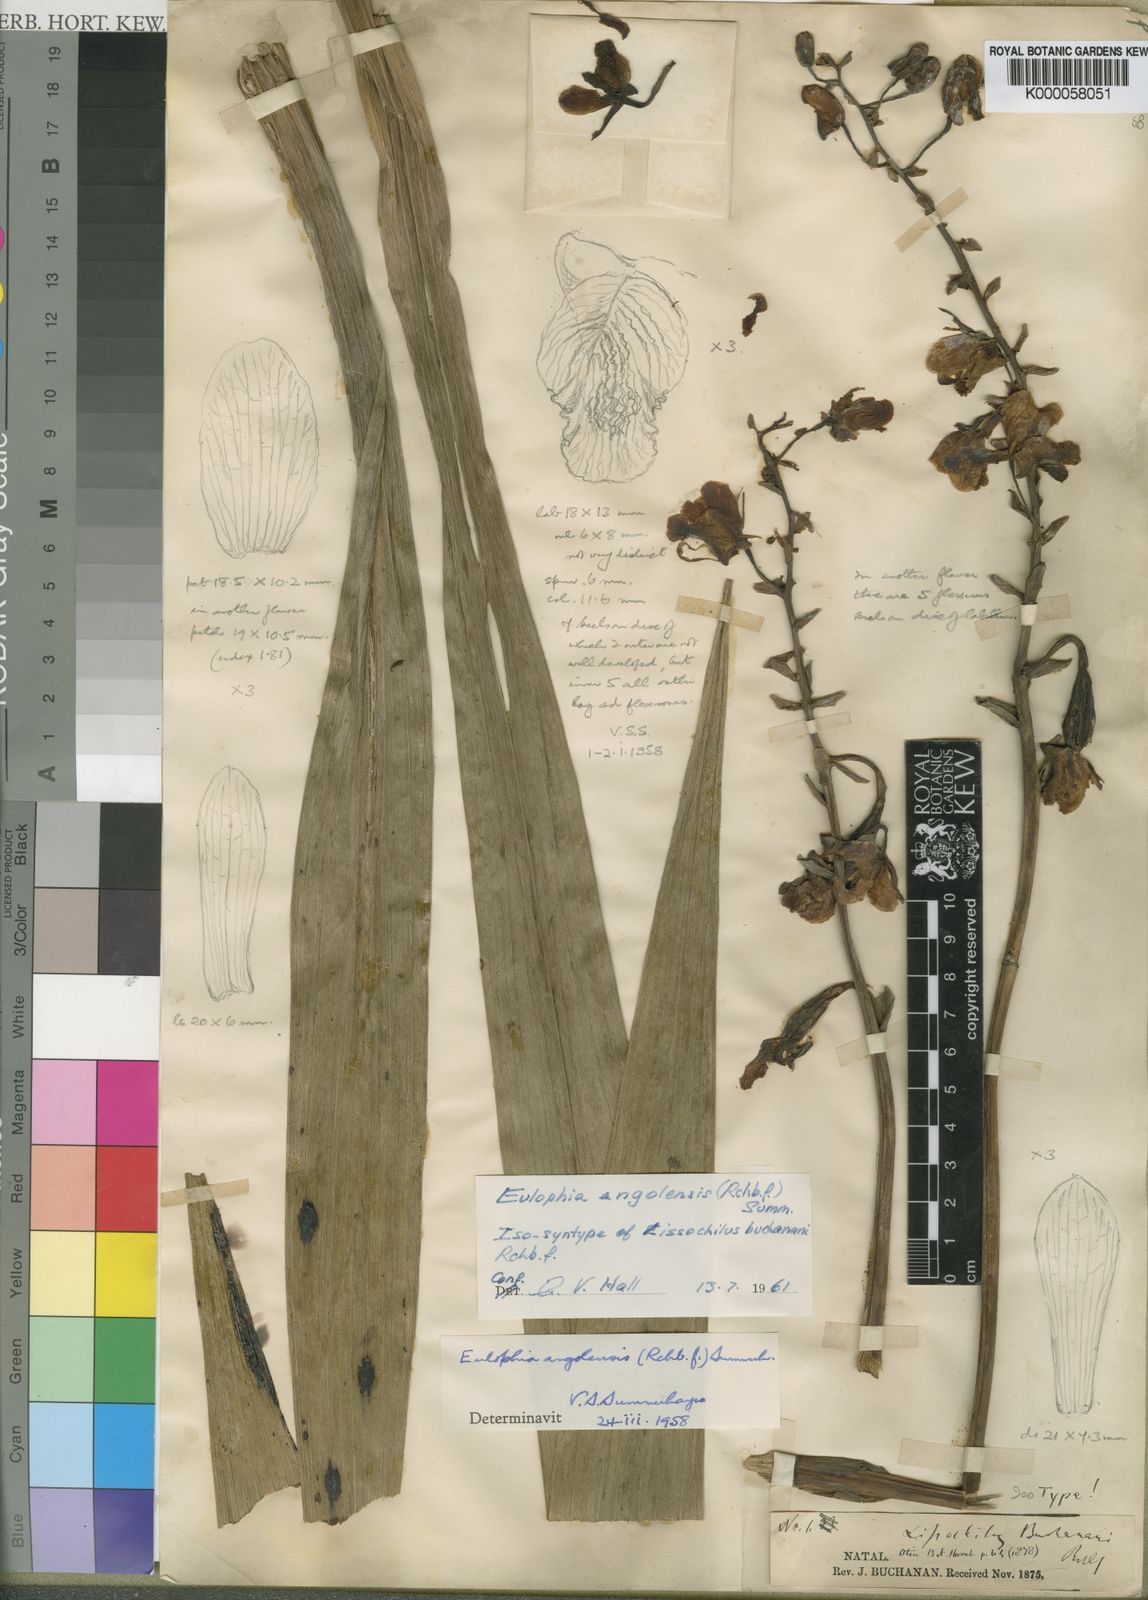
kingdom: Plantae
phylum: Tracheophyta
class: Liliopsida
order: Asparagales
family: Orchidaceae
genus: Eulophia
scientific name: Eulophia angolensis
